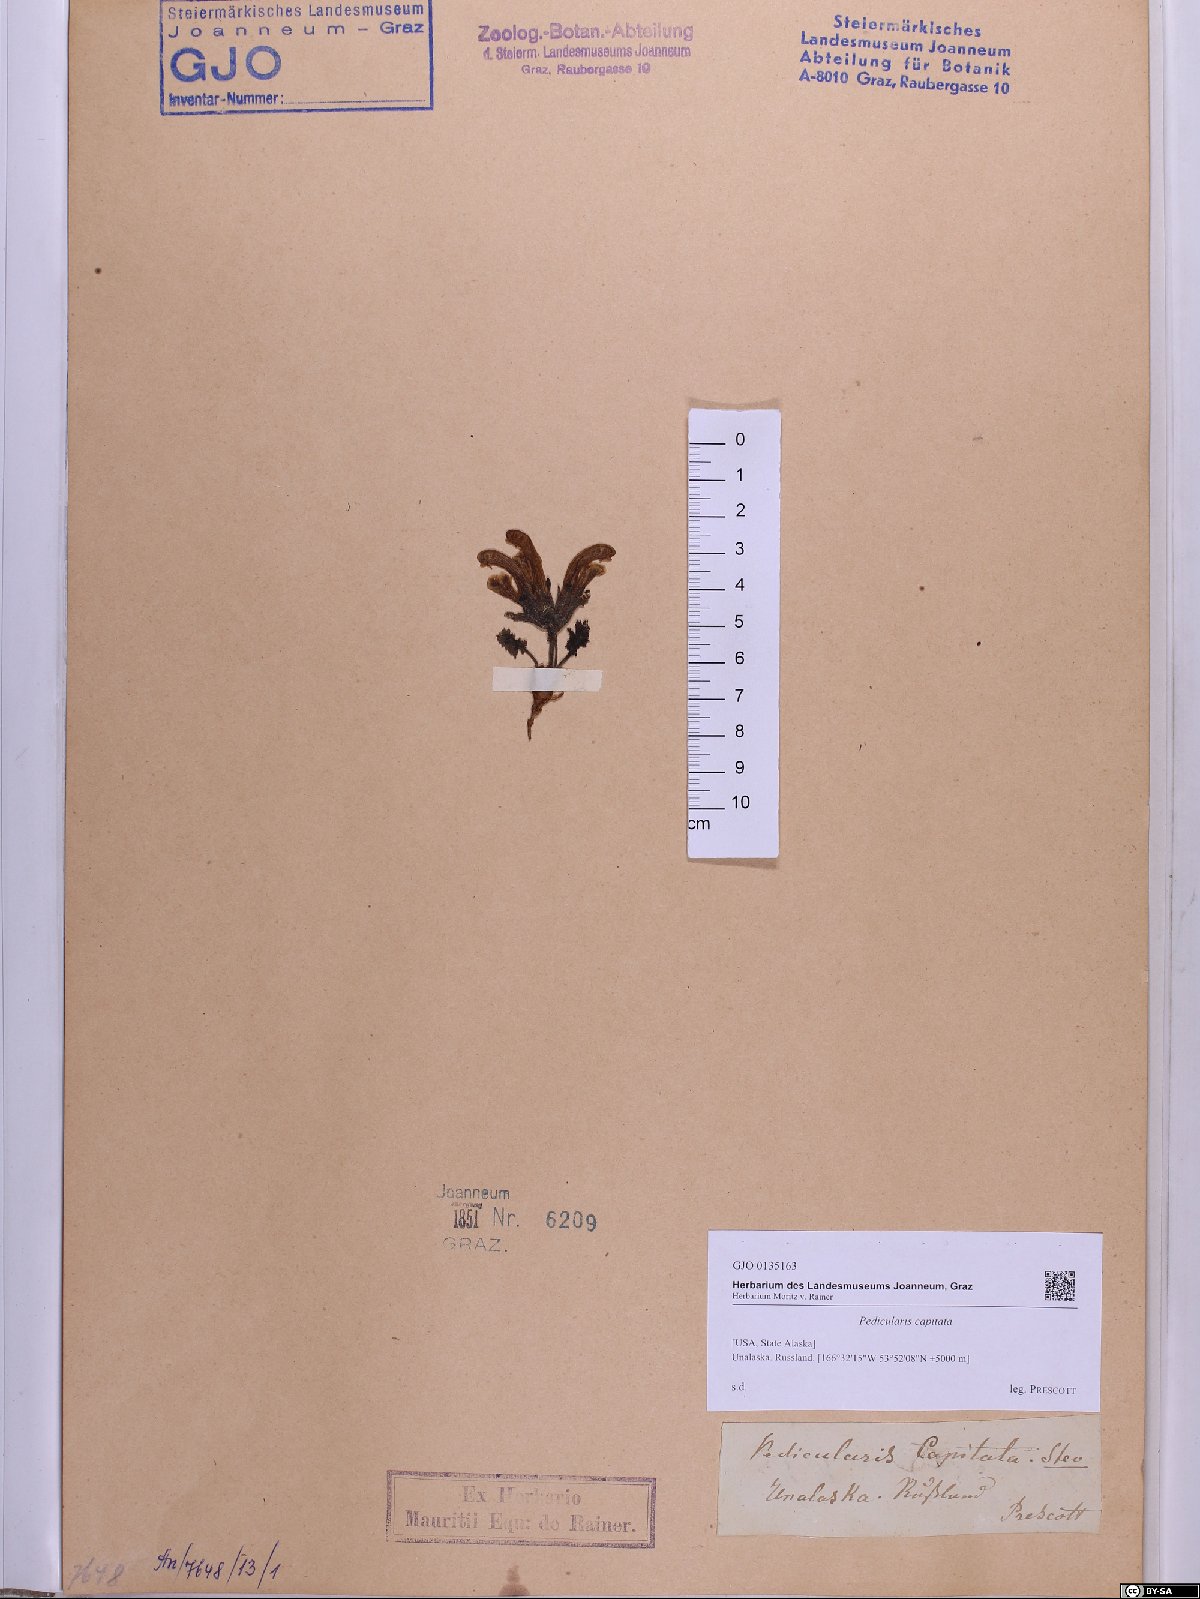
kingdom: Plantae
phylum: Tracheophyta
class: Magnoliopsida
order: Lamiales
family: Orobanchaceae
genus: Pedicularis
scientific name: Pedicularis capitata
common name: Capitate lousewort
